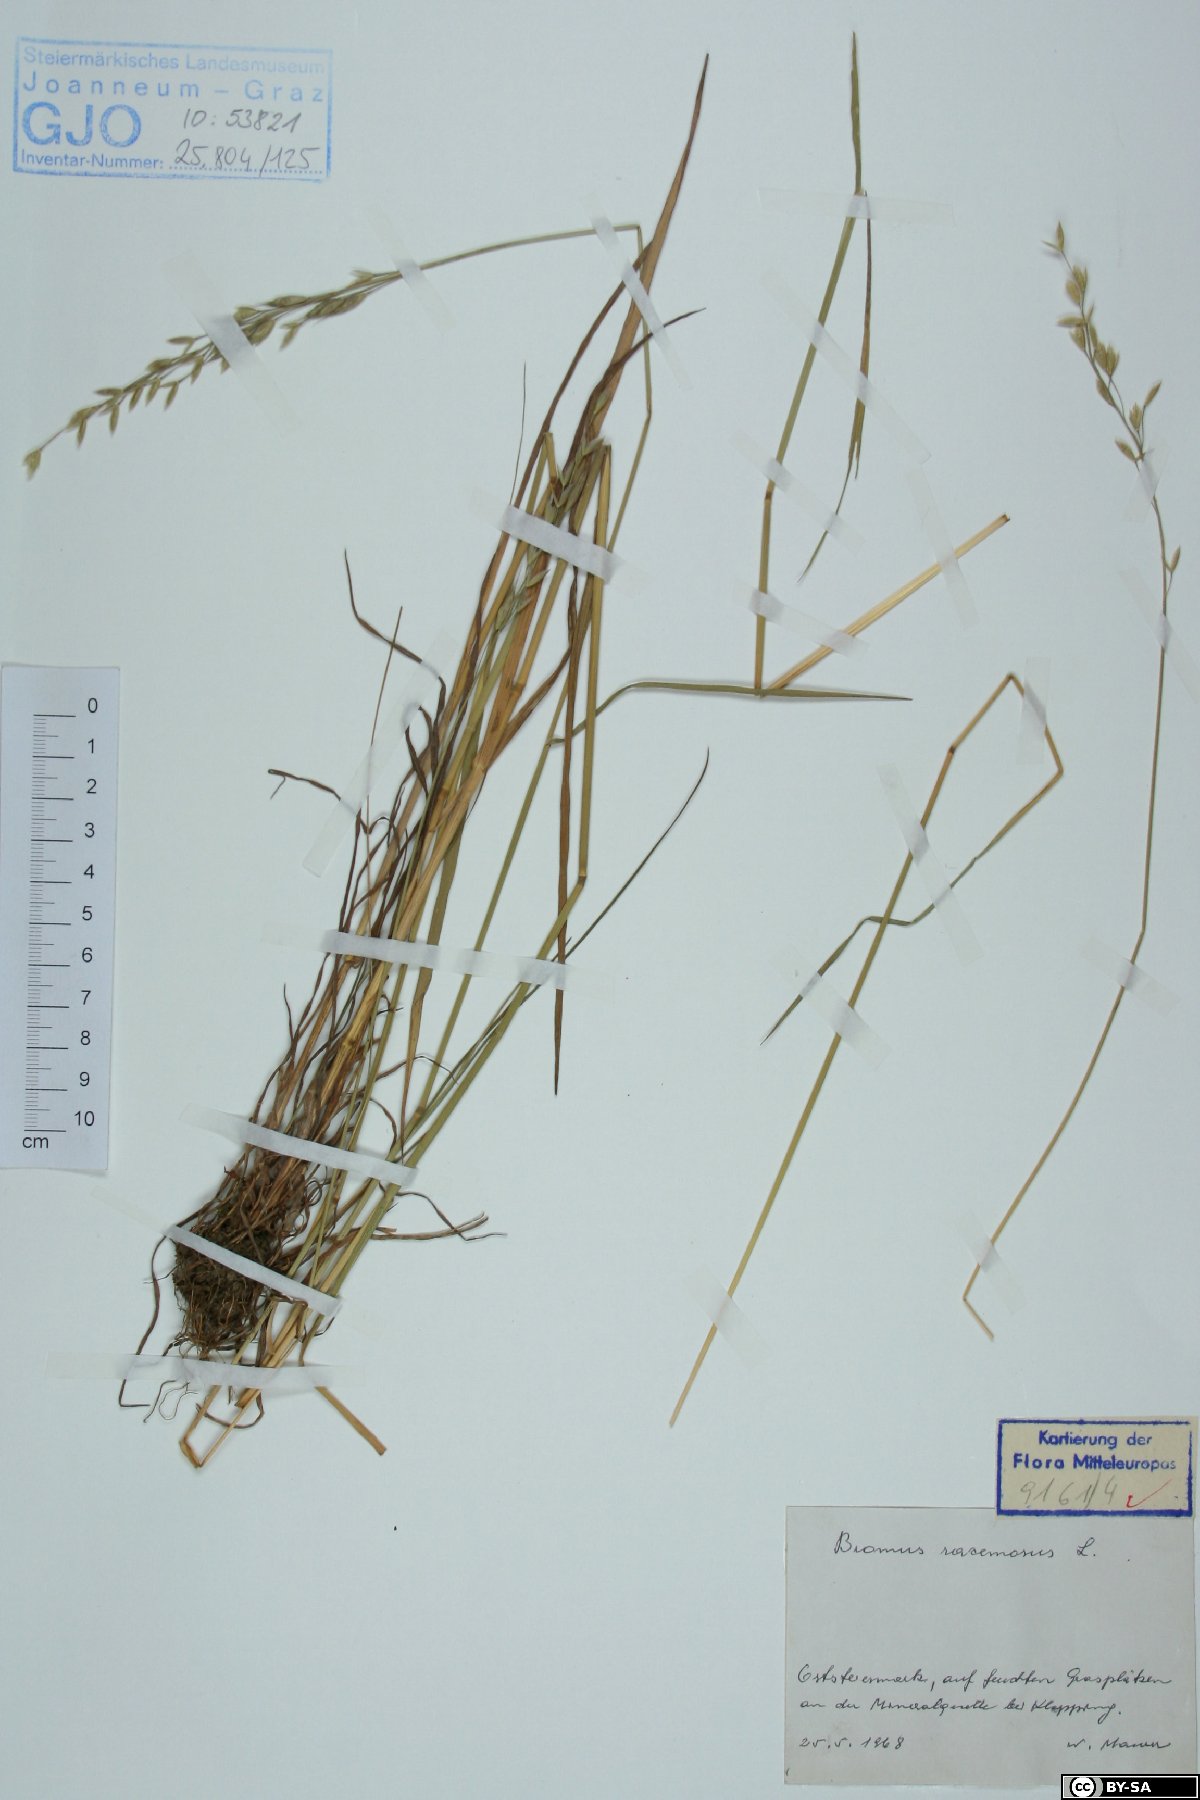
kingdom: Plantae
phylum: Tracheophyta
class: Liliopsida
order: Poales
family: Poaceae
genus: Bromus
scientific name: Bromus racemosus
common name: Bald brome
